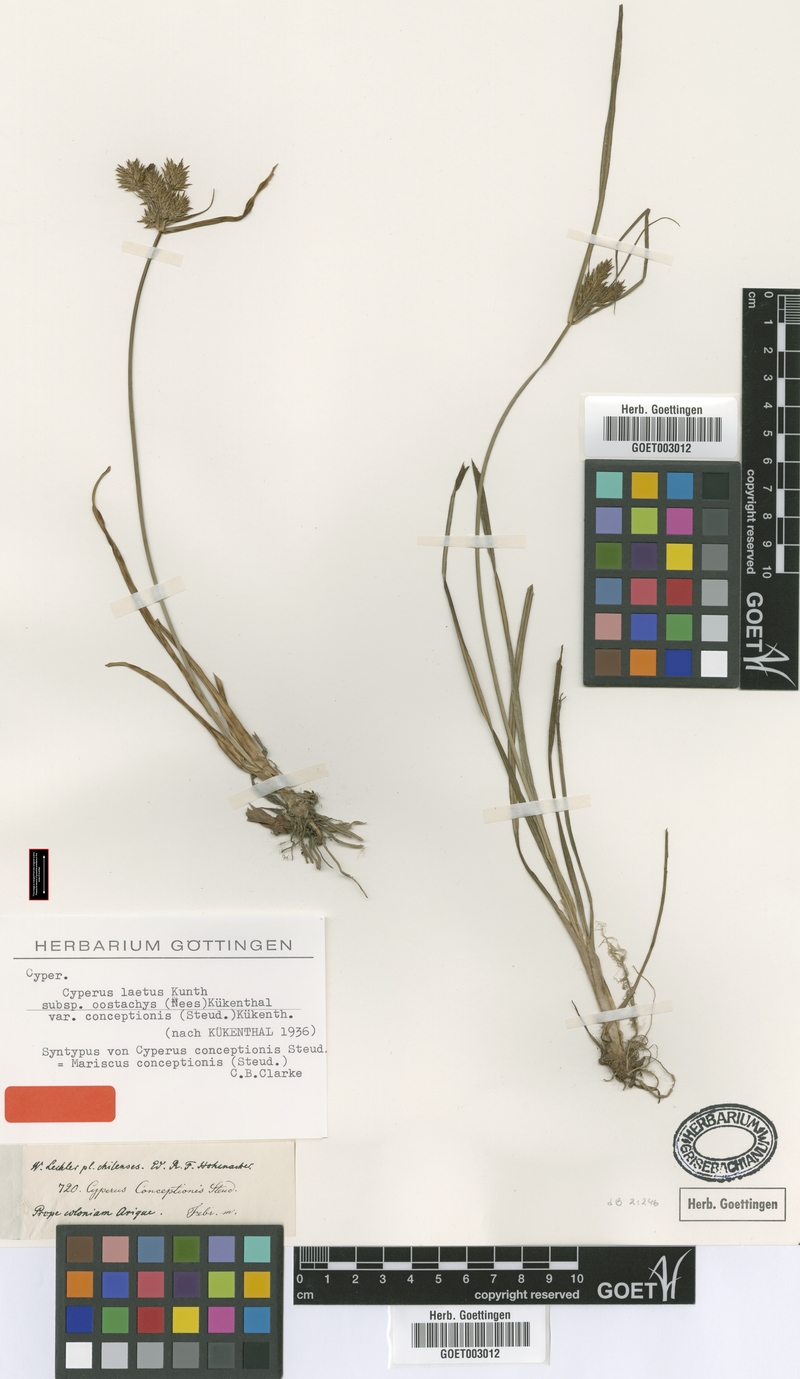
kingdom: Plantae
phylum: Tracheophyta
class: Liliopsida
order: Poales
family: Cyperaceae
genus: Cyperus
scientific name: Cyperus rigens
